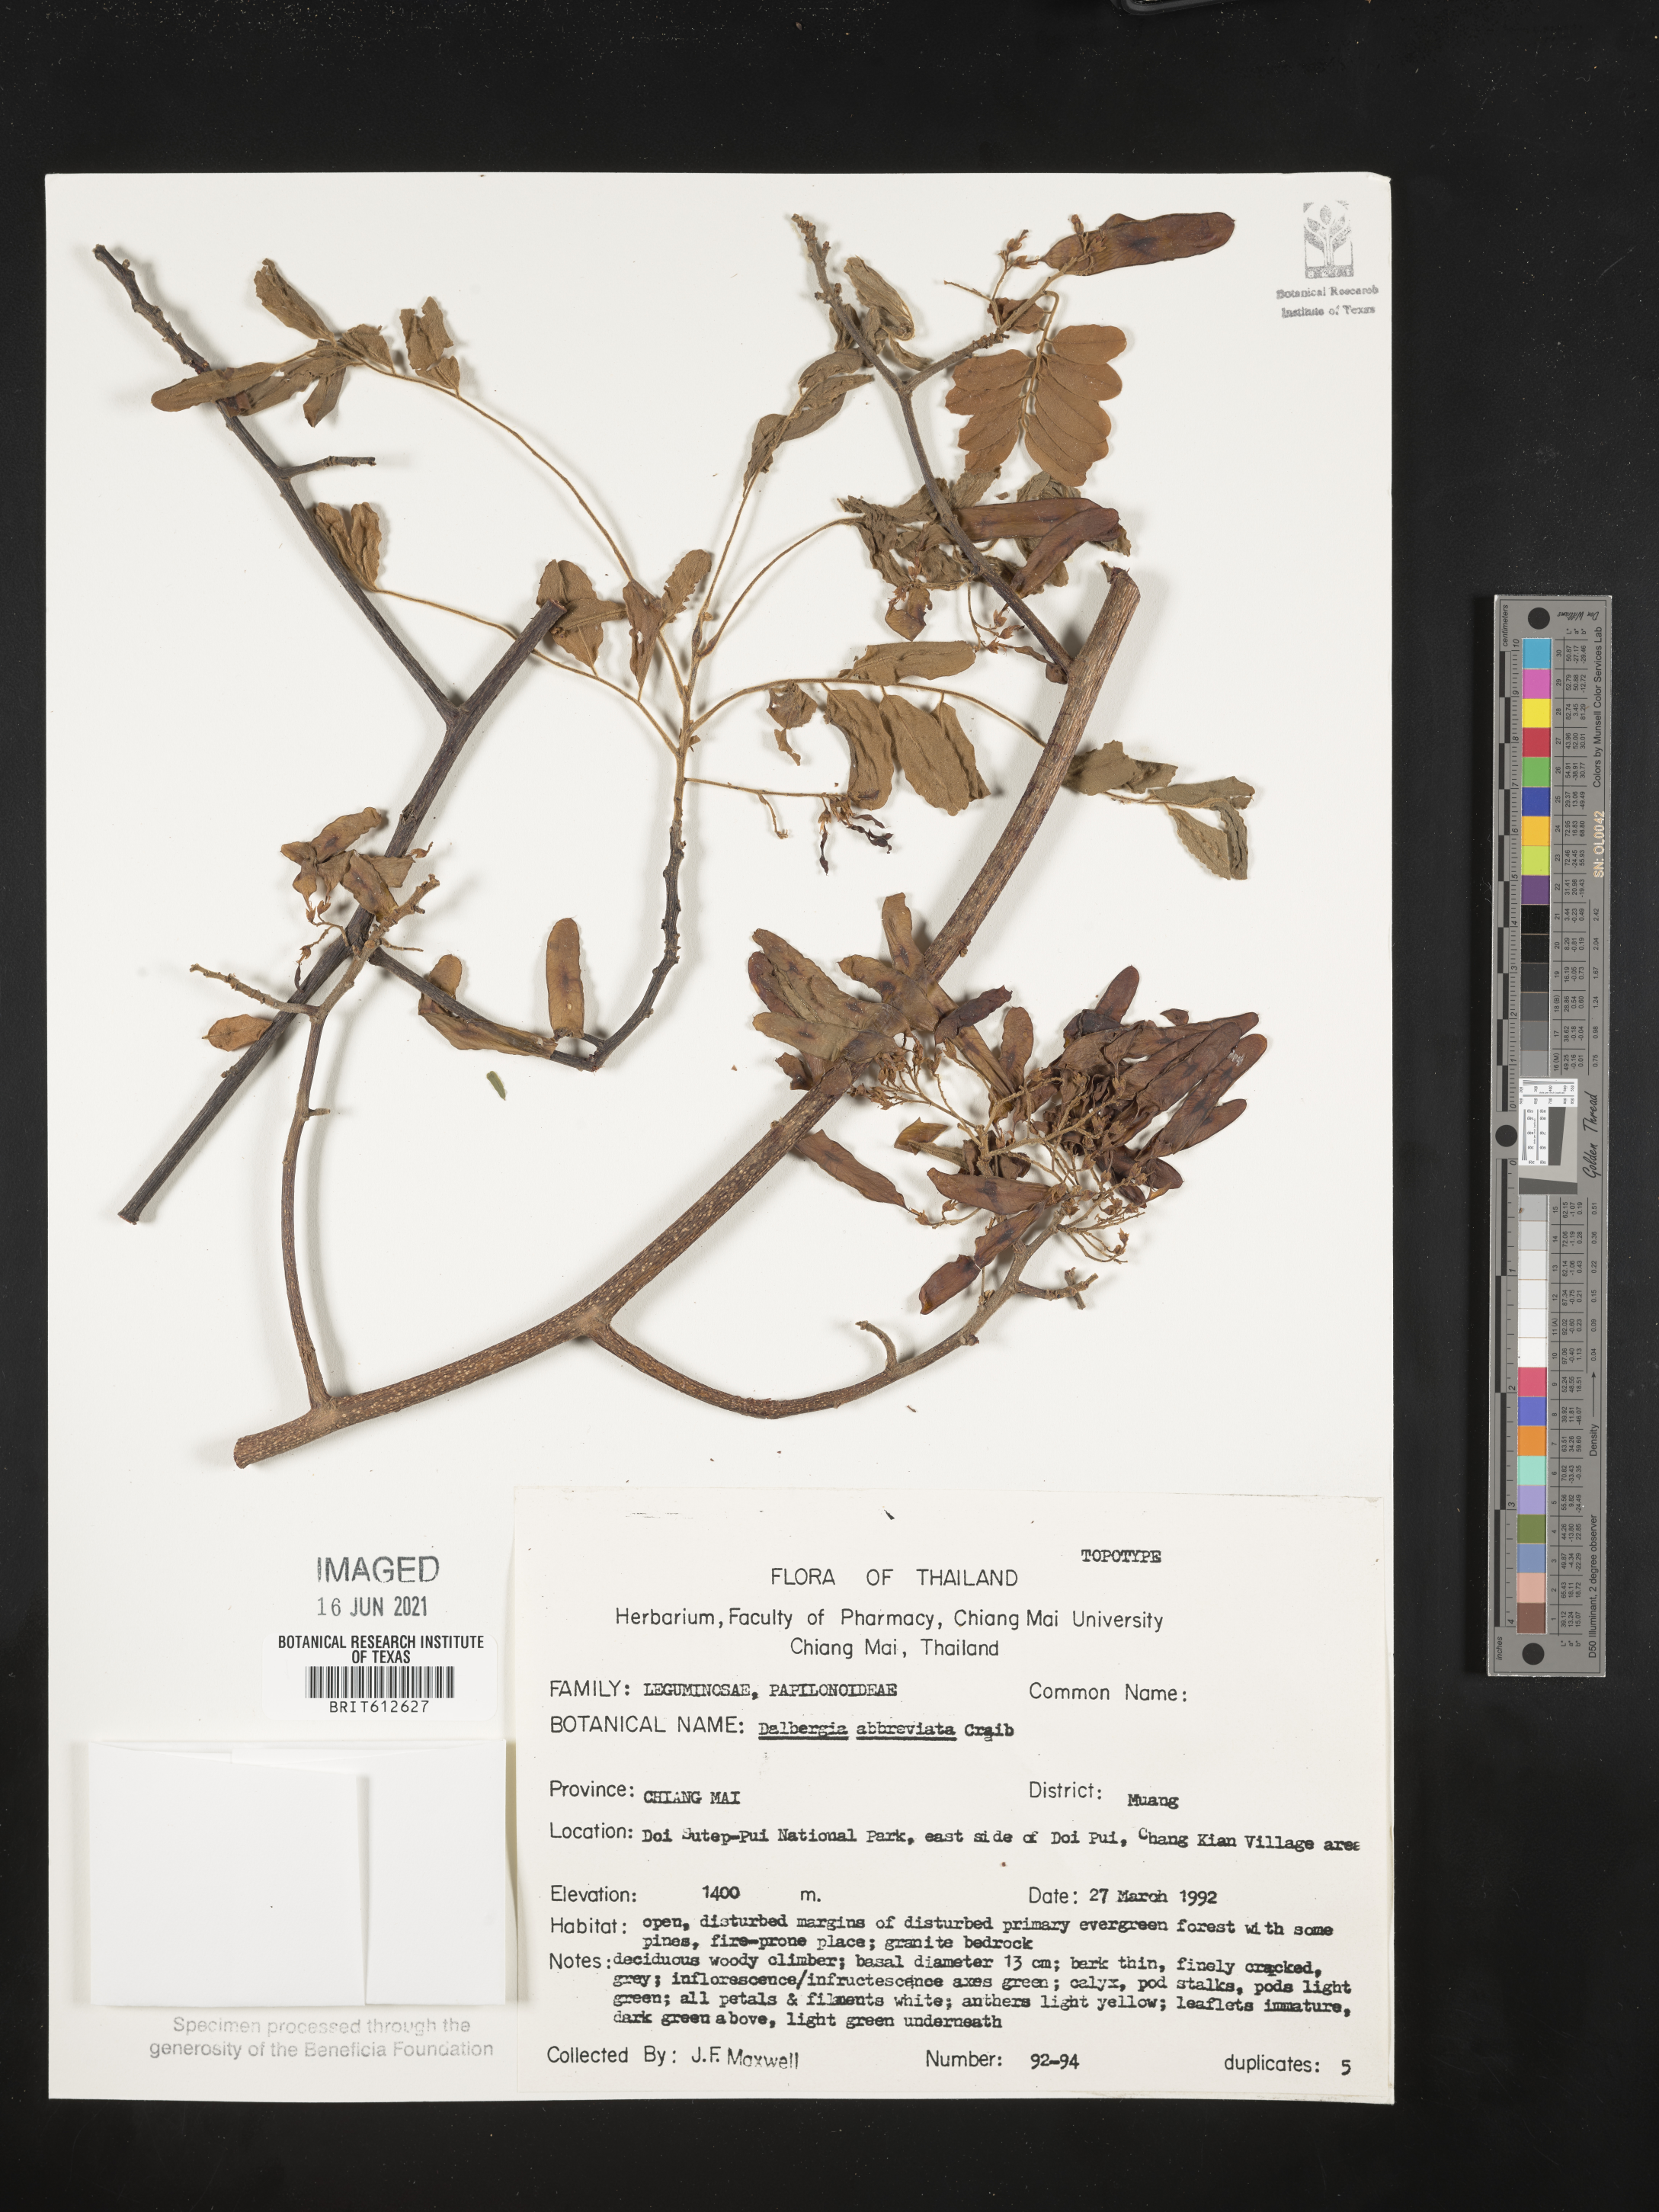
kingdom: Plantae
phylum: Tracheophyta
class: Magnoliopsida
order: Fabales
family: Fabaceae
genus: Dalbergia
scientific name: Dalbergia velutina
